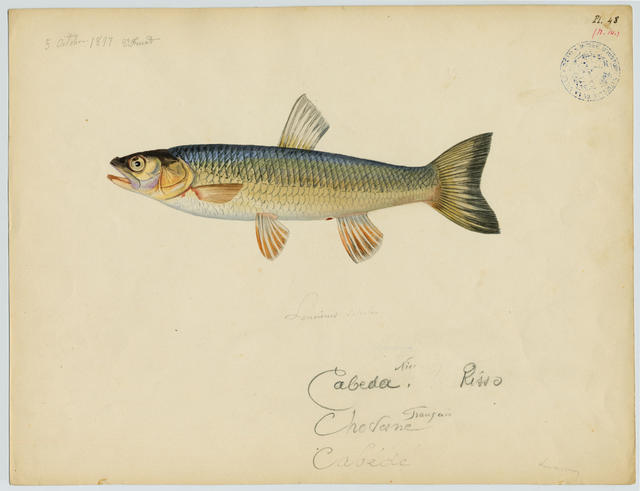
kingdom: Animalia
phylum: Chordata
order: Cypriniformes
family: Cyprinidae
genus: Squalius
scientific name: Squalius cephalus
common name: Chub
